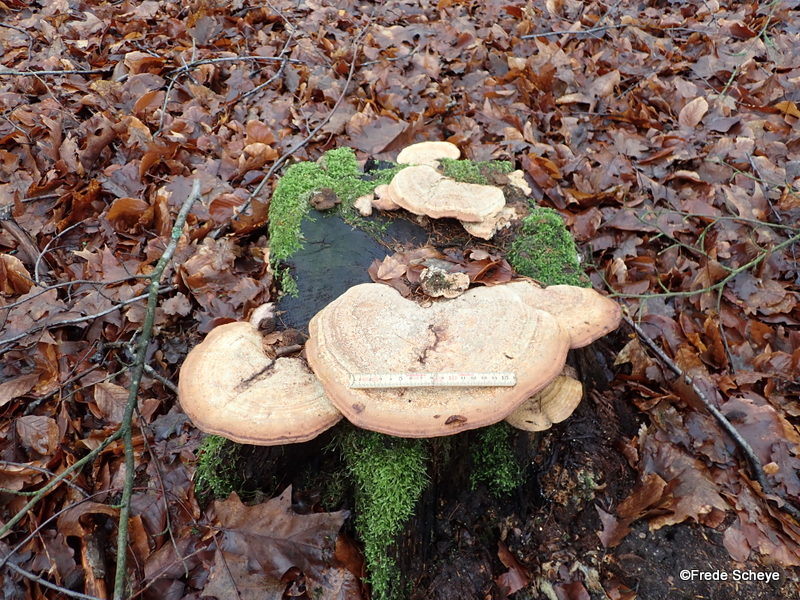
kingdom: Fungi
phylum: Basidiomycota
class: Agaricomycetes
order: Polyporales
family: Fomitopsidaceae
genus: Daedalea
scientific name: Daedalea quercina
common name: ege-labyrintsvamp
